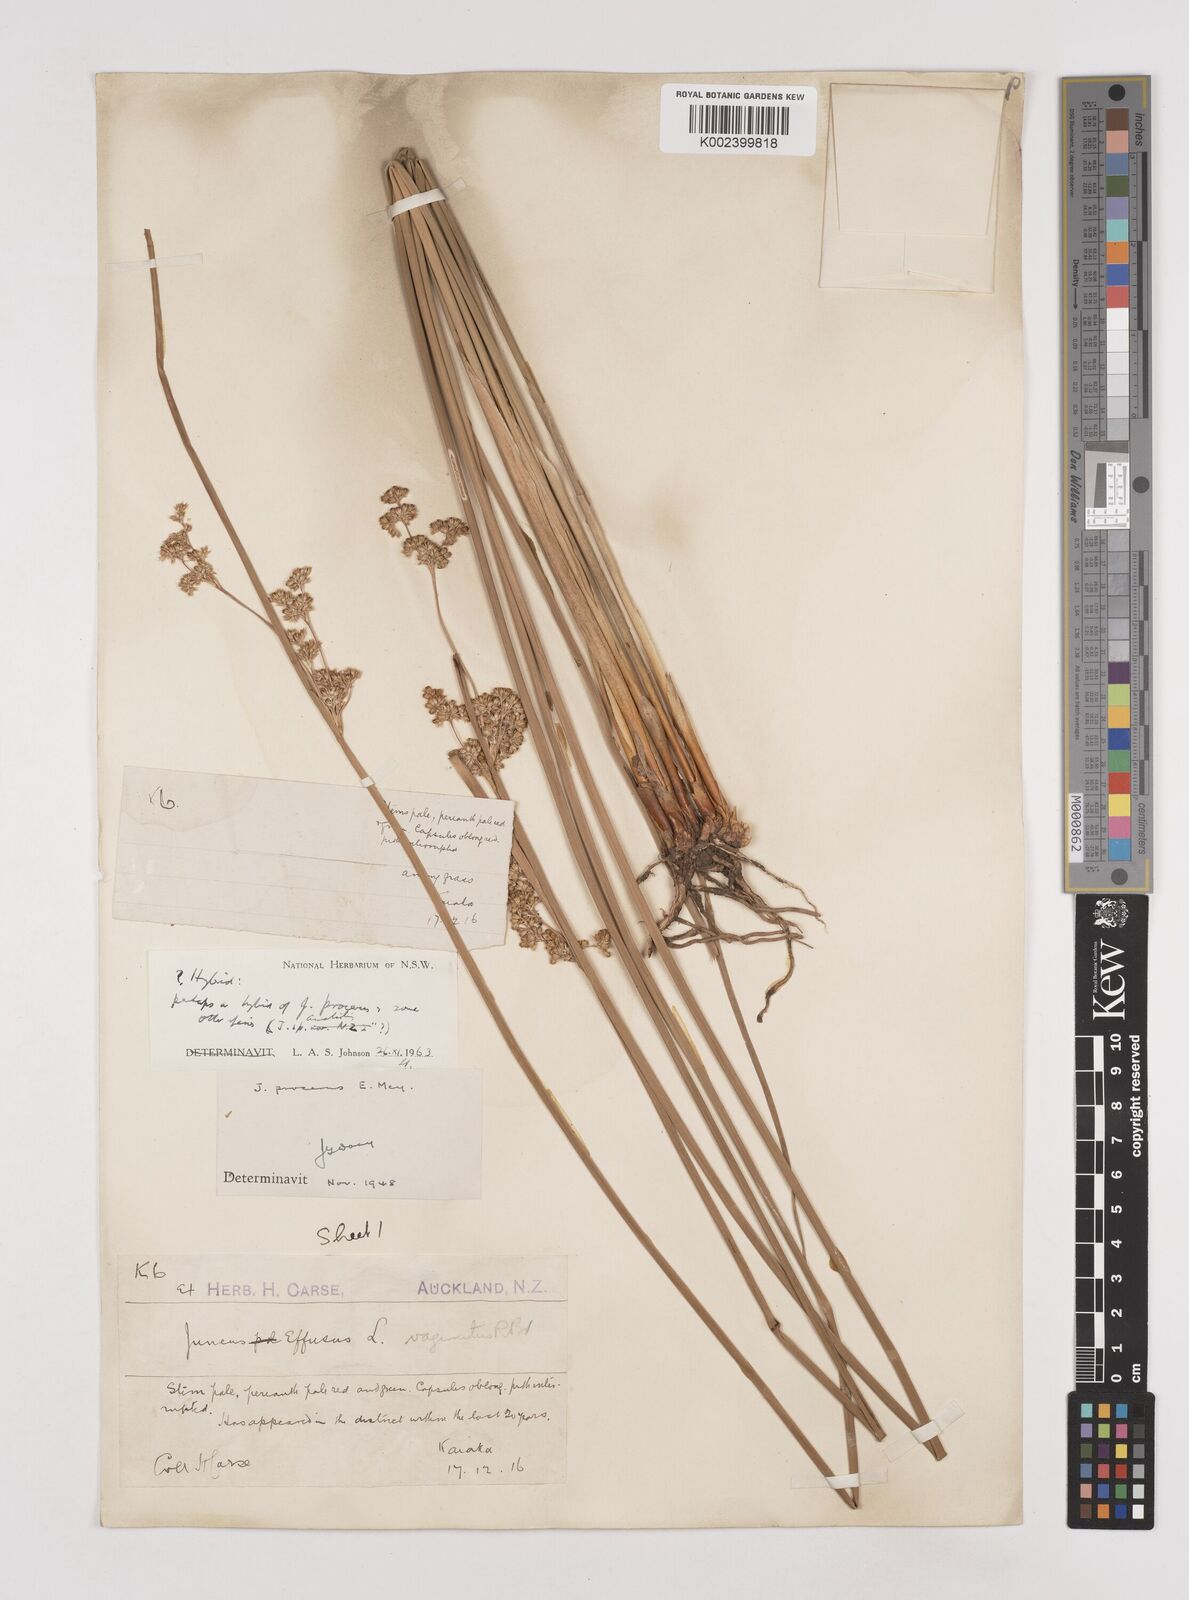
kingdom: Plantae
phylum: Tracheophyta
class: Liliopsida
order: Poales
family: Juncaceae
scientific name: Juncaceae
